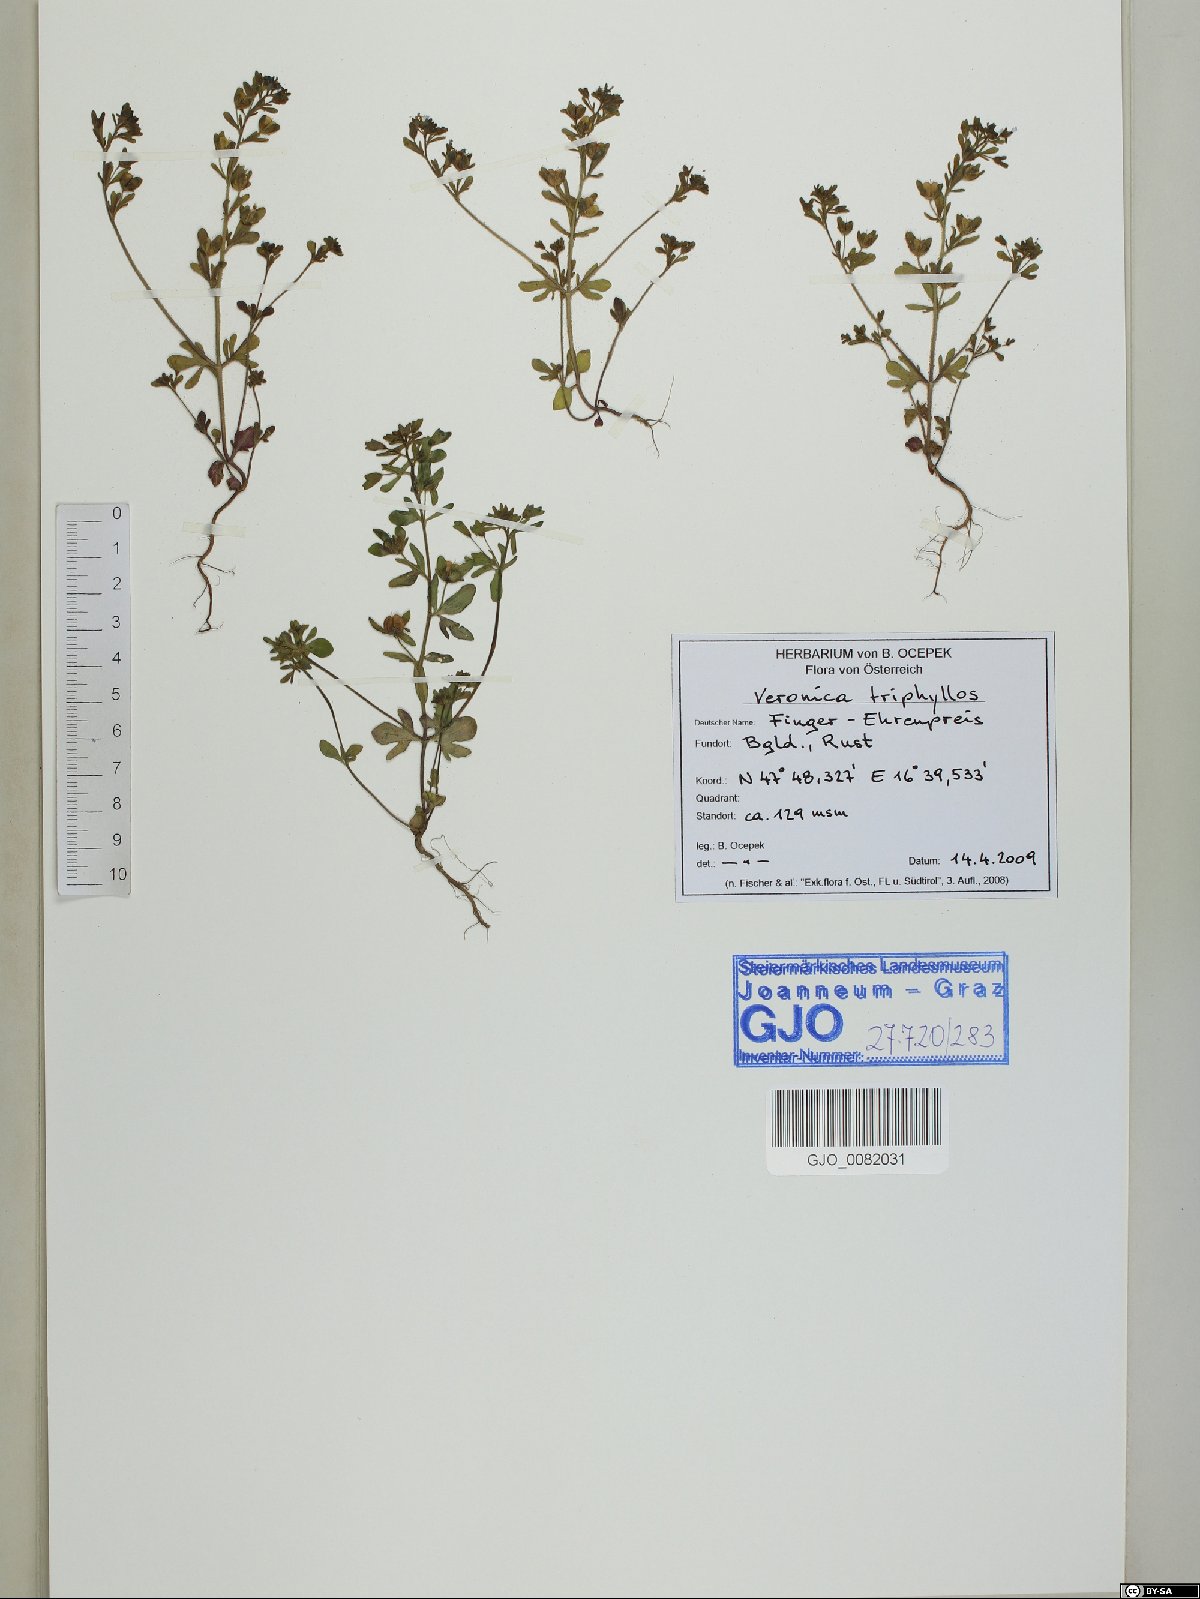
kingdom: Plantae
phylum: Tracheophyta
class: Magnoliopsida
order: Lamiales
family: Plantaginaceae
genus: Veronica
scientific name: Veronica triphyllos
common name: Fingered speedwell
